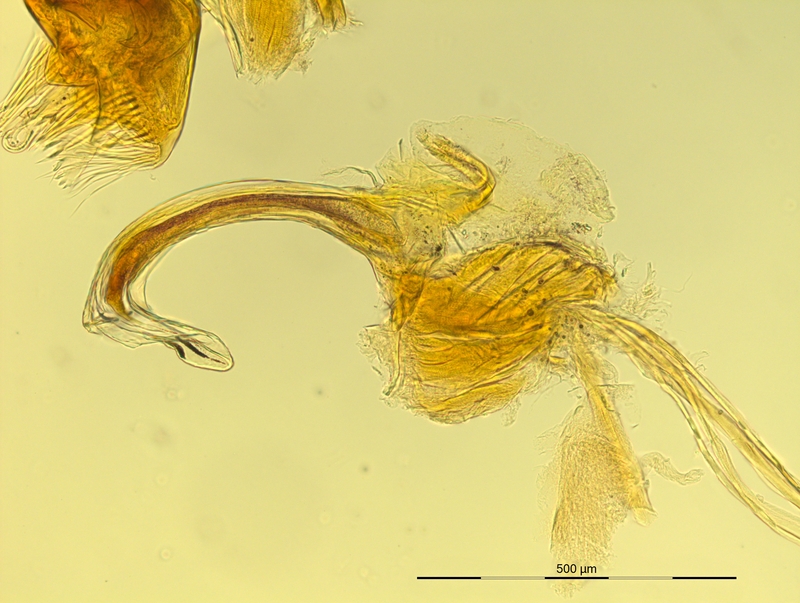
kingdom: Animalia
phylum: Arthropoda
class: Diplopoda
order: Chordeumatida
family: Craspedosomatidae
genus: Pyrgocyphosoma
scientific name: Pyrgocyphosoma dalmazzense
